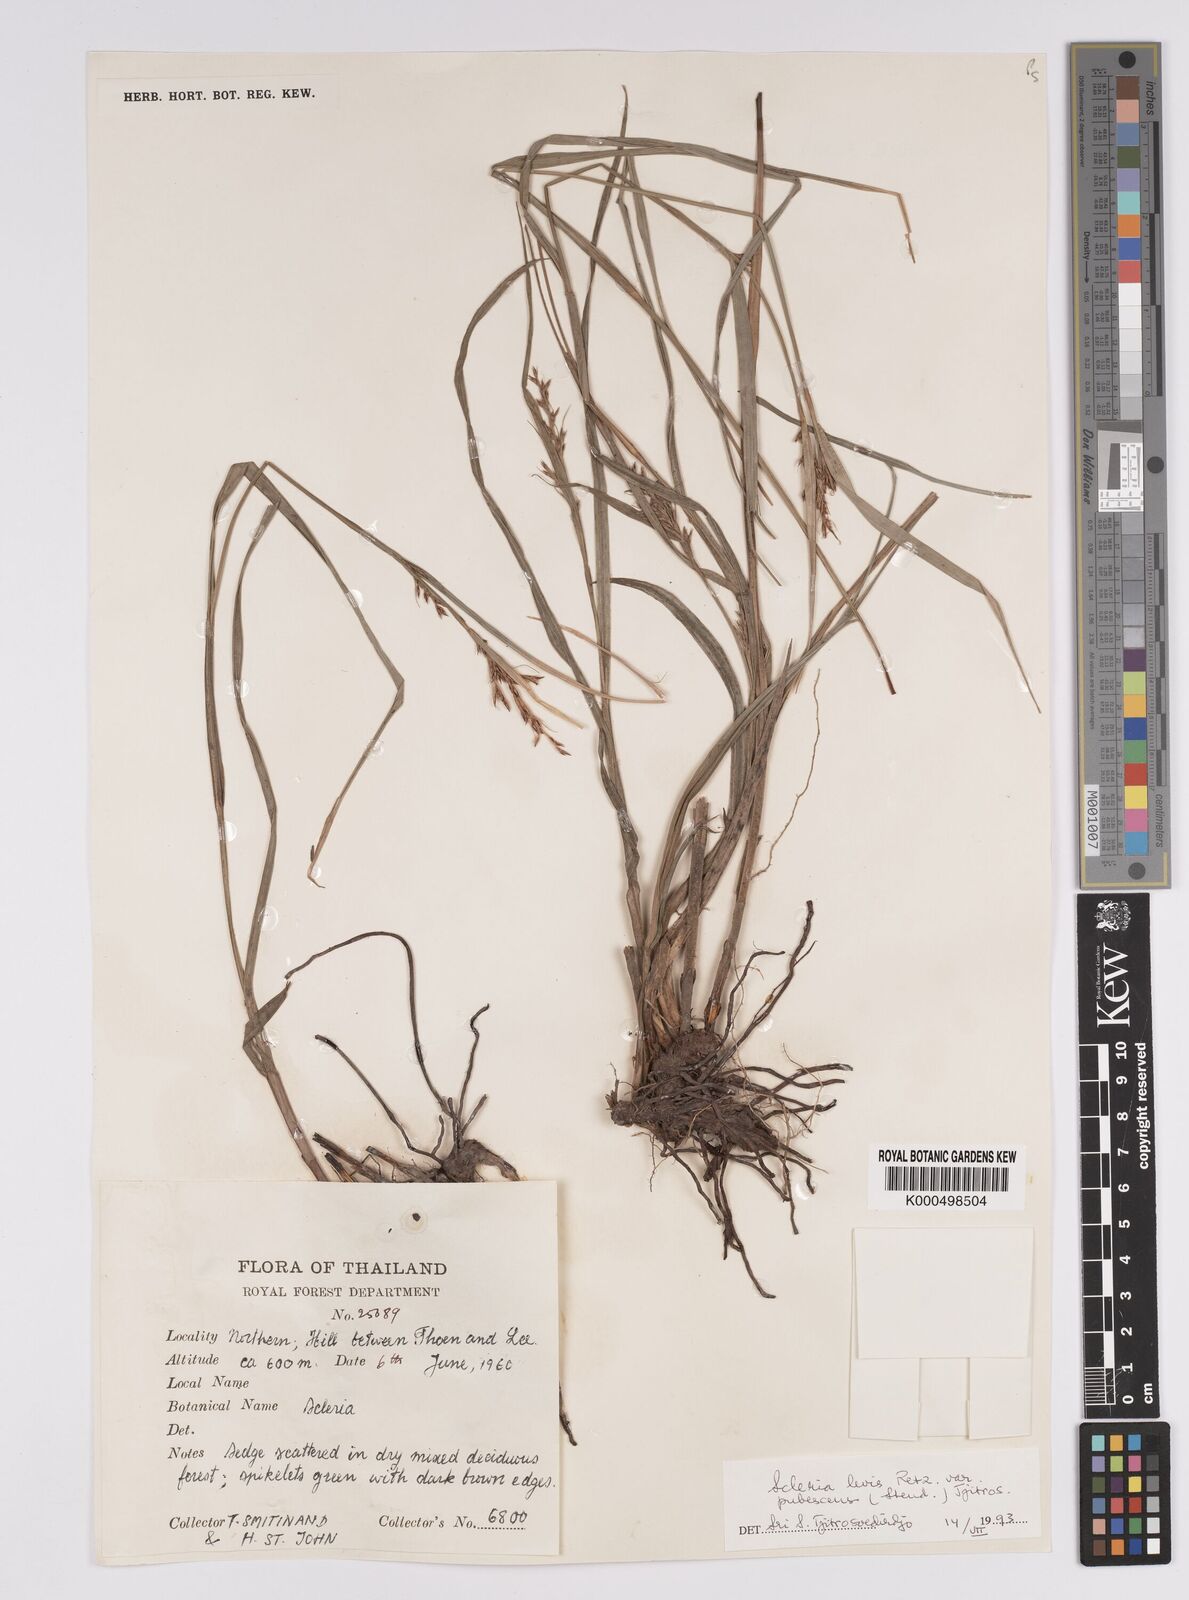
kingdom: Plantae
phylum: Tracheophyta
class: Liliopsida
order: Poales
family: Cyperaceae
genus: Scleria
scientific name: Scleria levis
